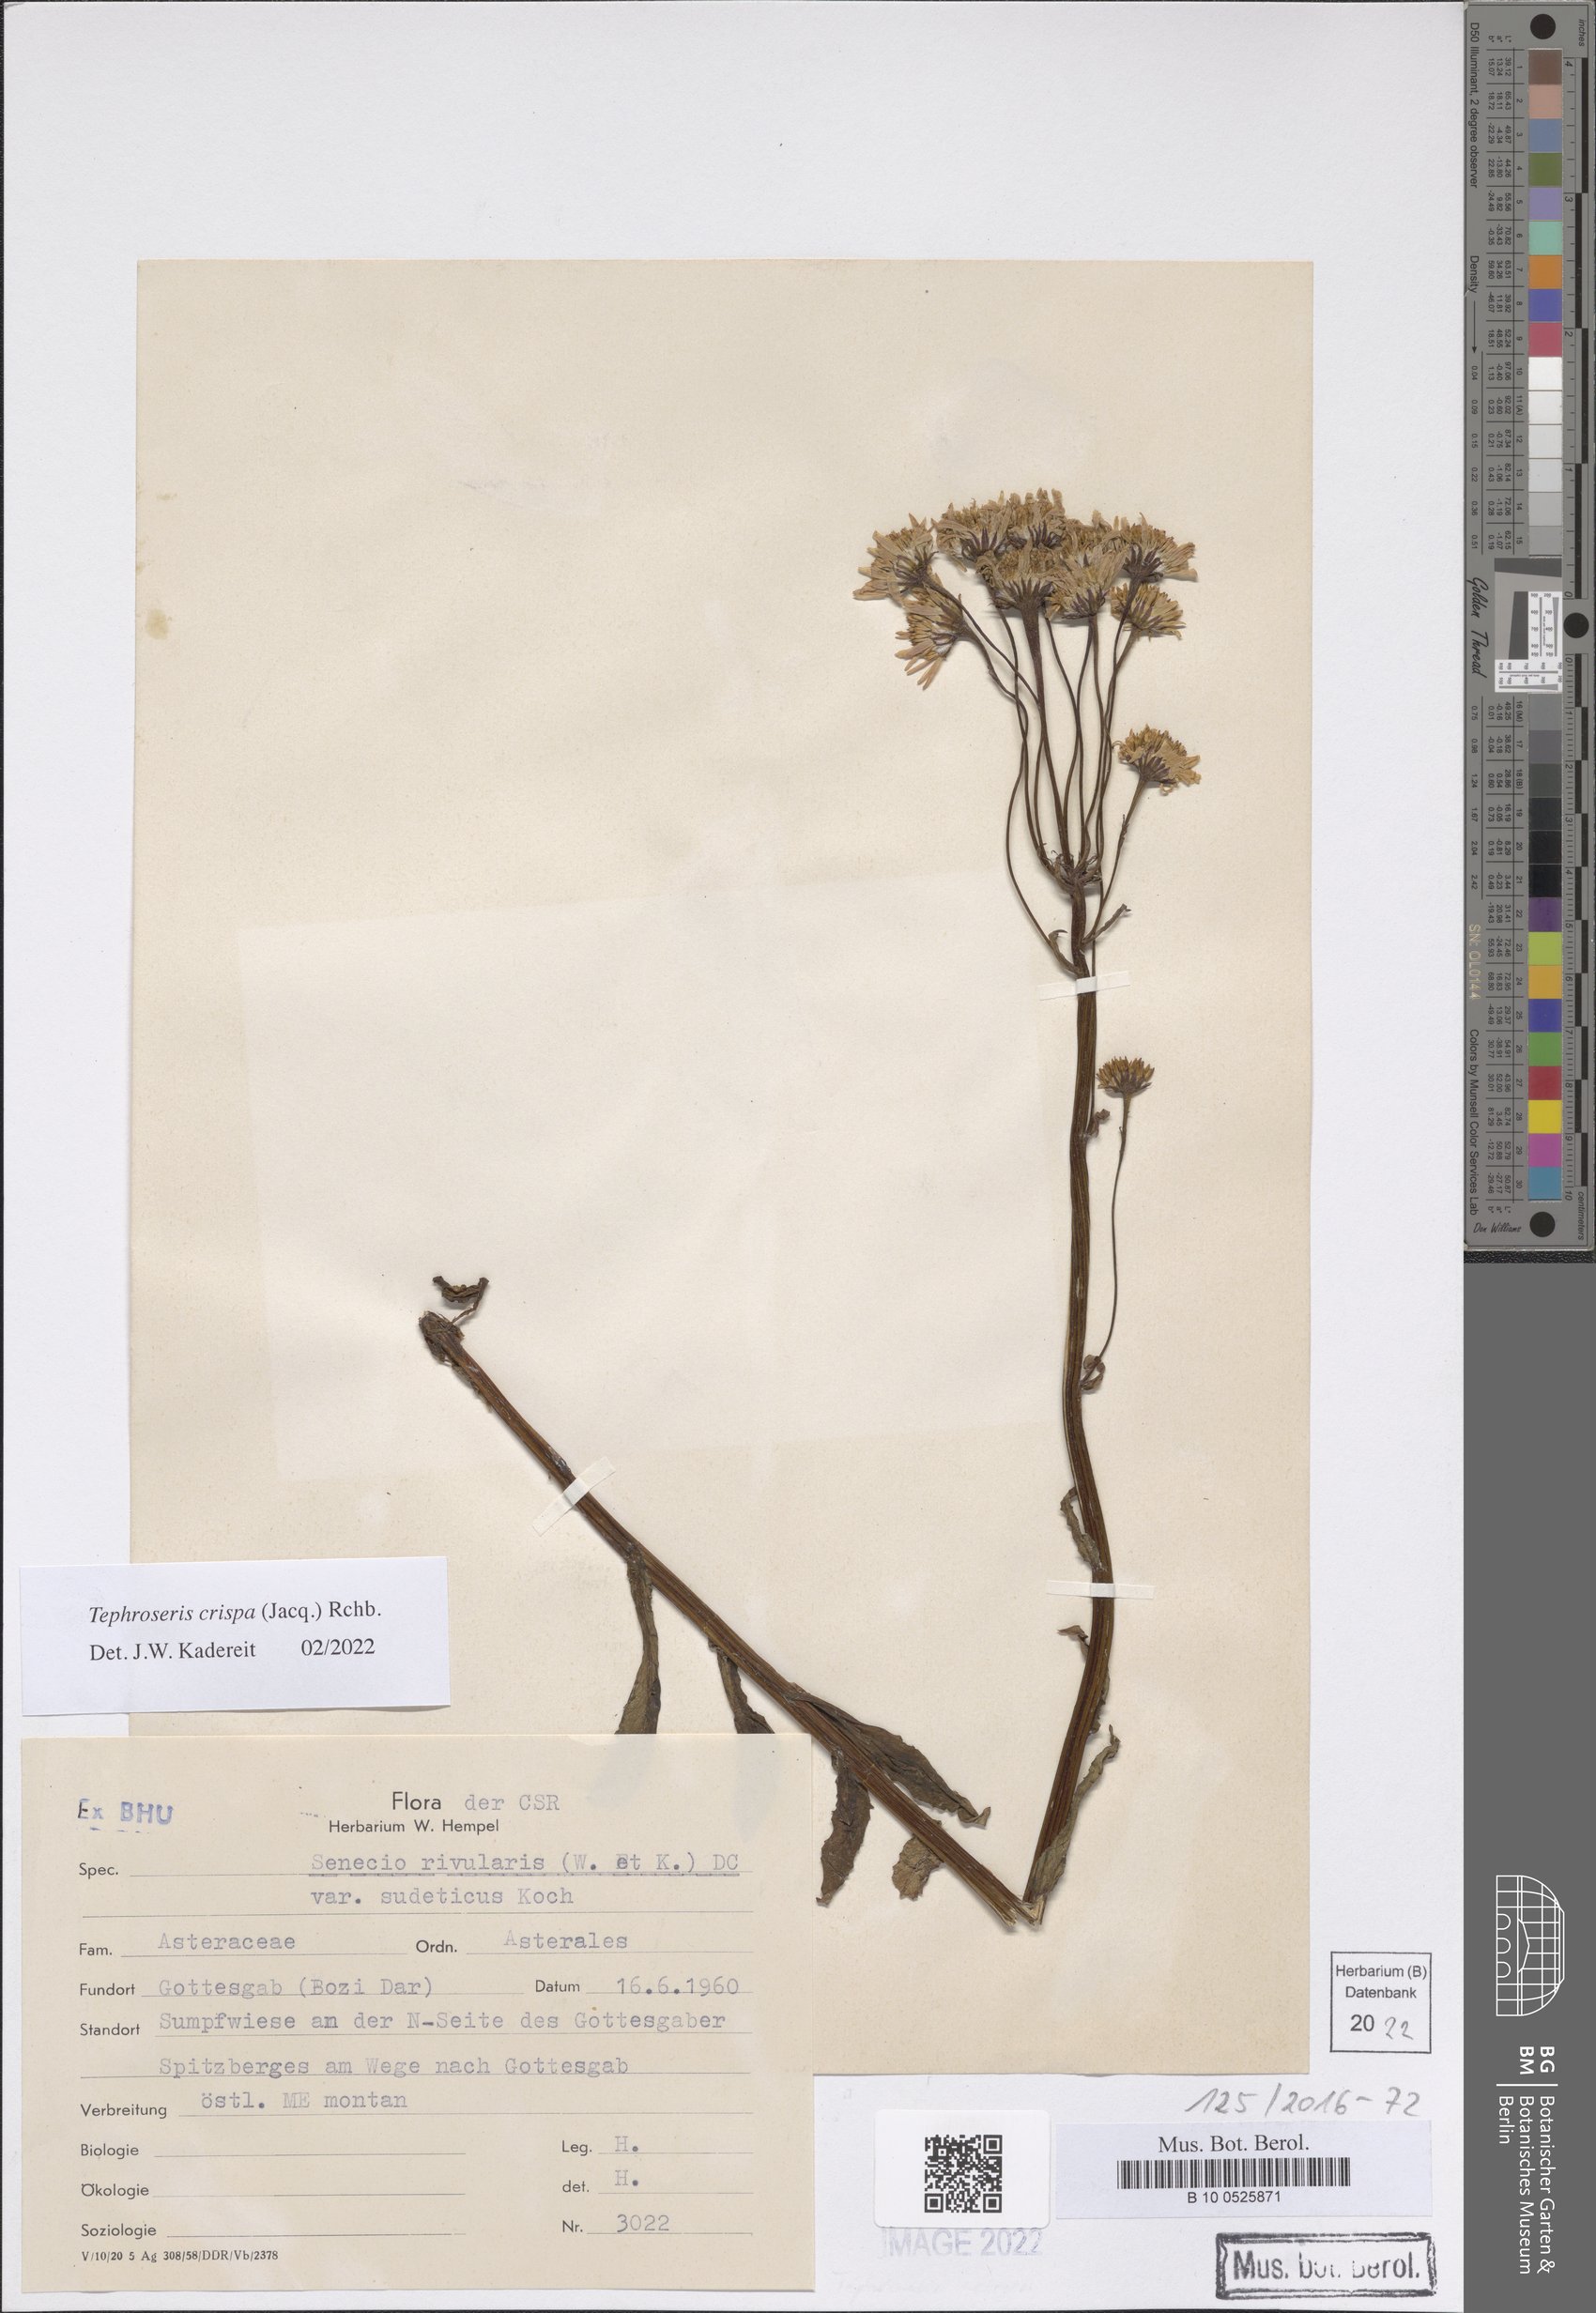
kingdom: Plantae
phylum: Tracheophyta
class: Magnoliopsida
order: Asterales
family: Asteraceae
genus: Tephroseris
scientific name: Tephroseris crispa
